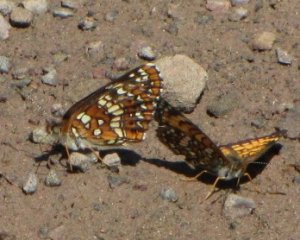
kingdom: Animalia
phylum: Arthropoda
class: Insecta
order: Lepidoptera
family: Nymphalidae
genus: Chlosyne
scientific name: Chlosyne harrisii
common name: Harris's Checkerspot
